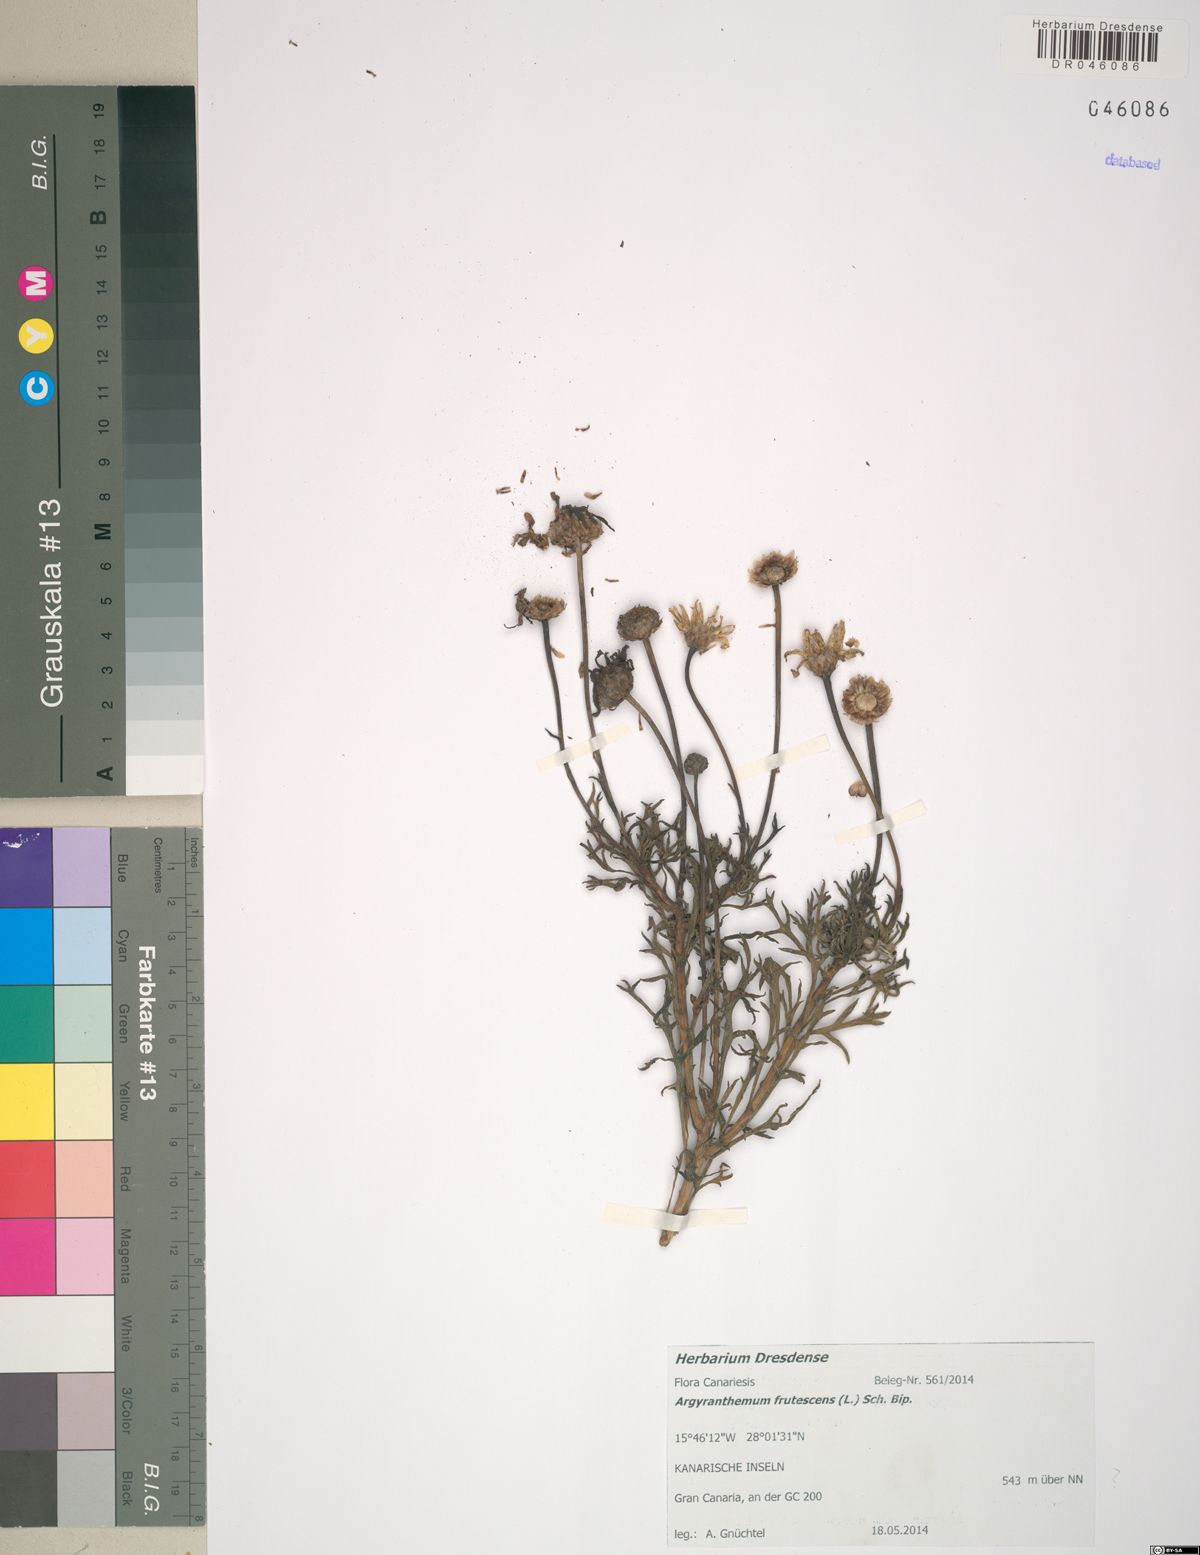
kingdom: Plantae
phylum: Tracheophyta
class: Magnoliopsida
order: Asterales
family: Asteraceae
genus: Argyranthemum
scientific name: Argyranthemum frutescens
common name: Paris daisy
